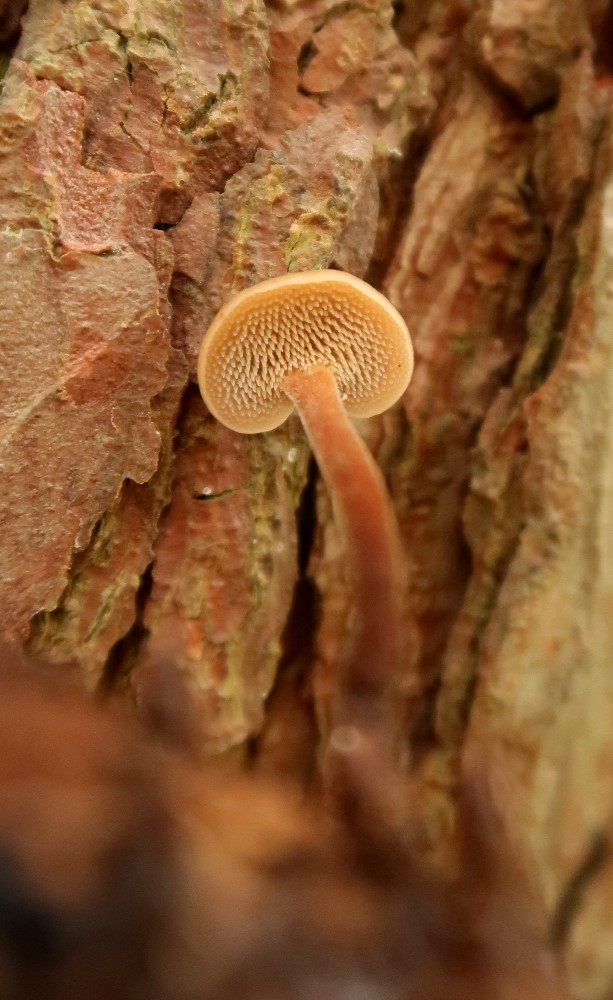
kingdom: Fungi
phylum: Basidiomycota
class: Agaricomycetes
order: Russulales
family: Auriscalpiaceae
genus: Auriscalpium
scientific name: Auriscalpium vulgare
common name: koglepigsvamp
